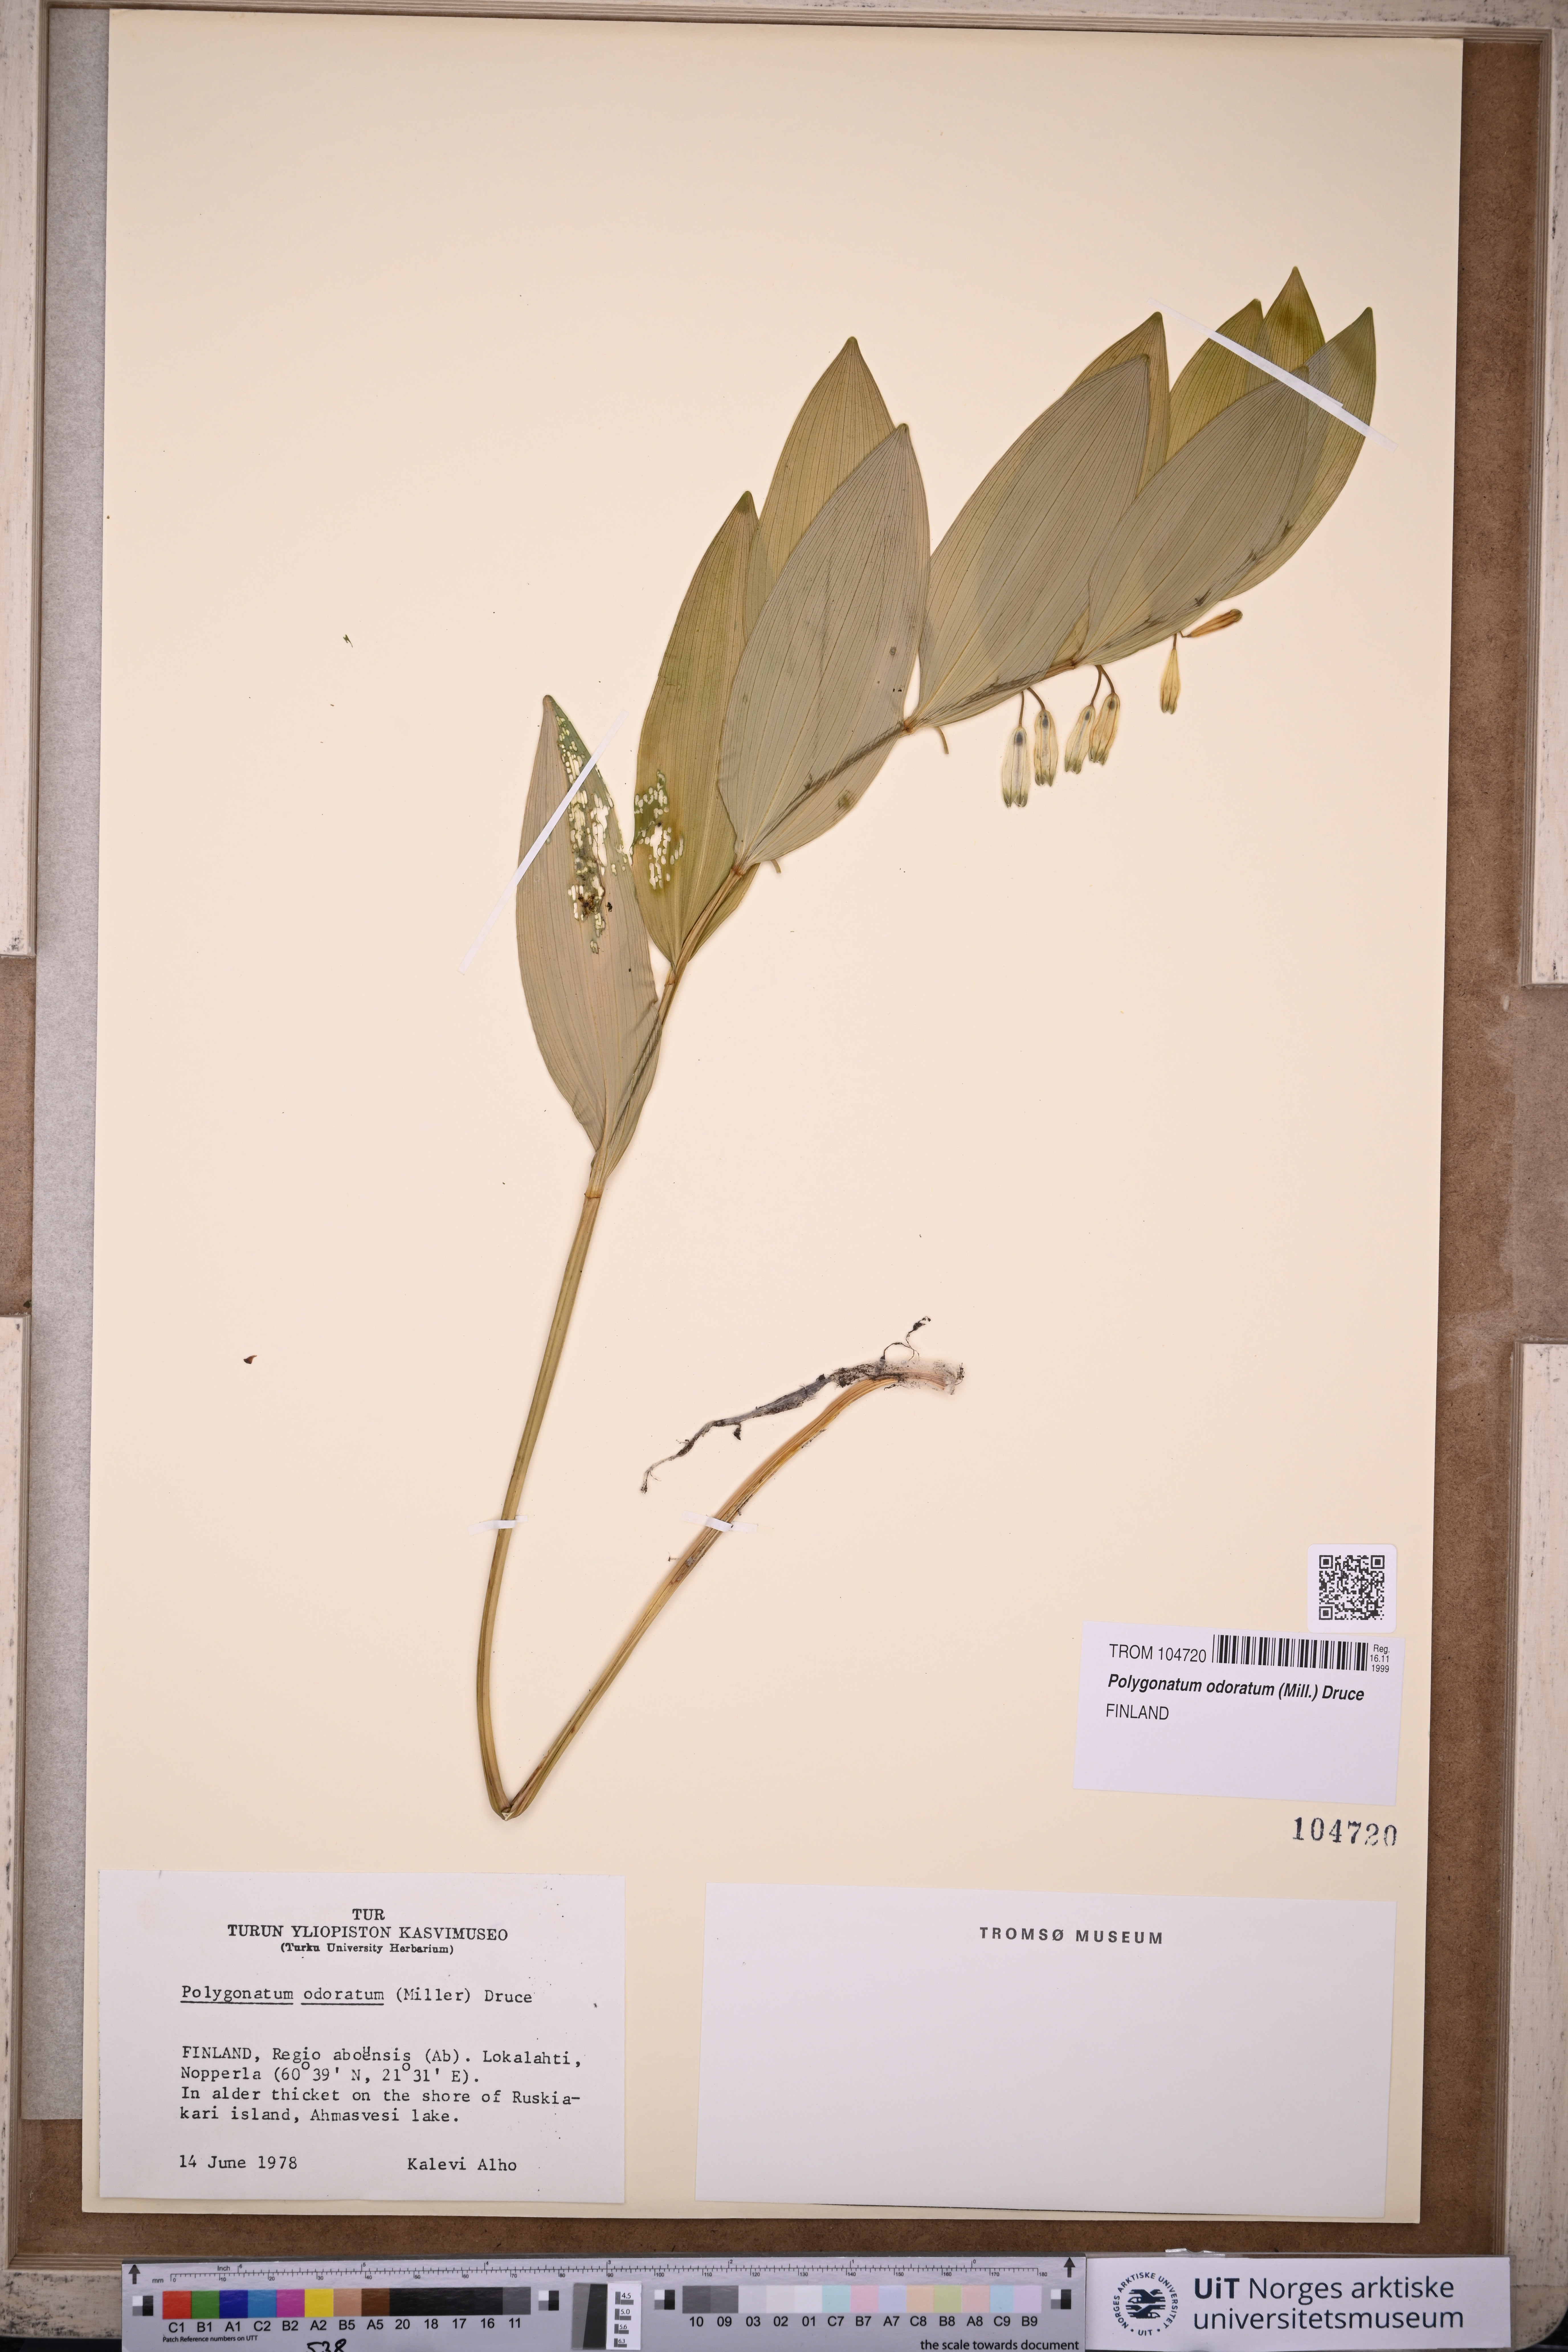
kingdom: Plantae
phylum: Tracheophyta
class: Liliopsida
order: Asparagales
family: Asparagaceae
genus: Polygonatum
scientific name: Polygonatum odoratum
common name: Angular solomon's-seal
